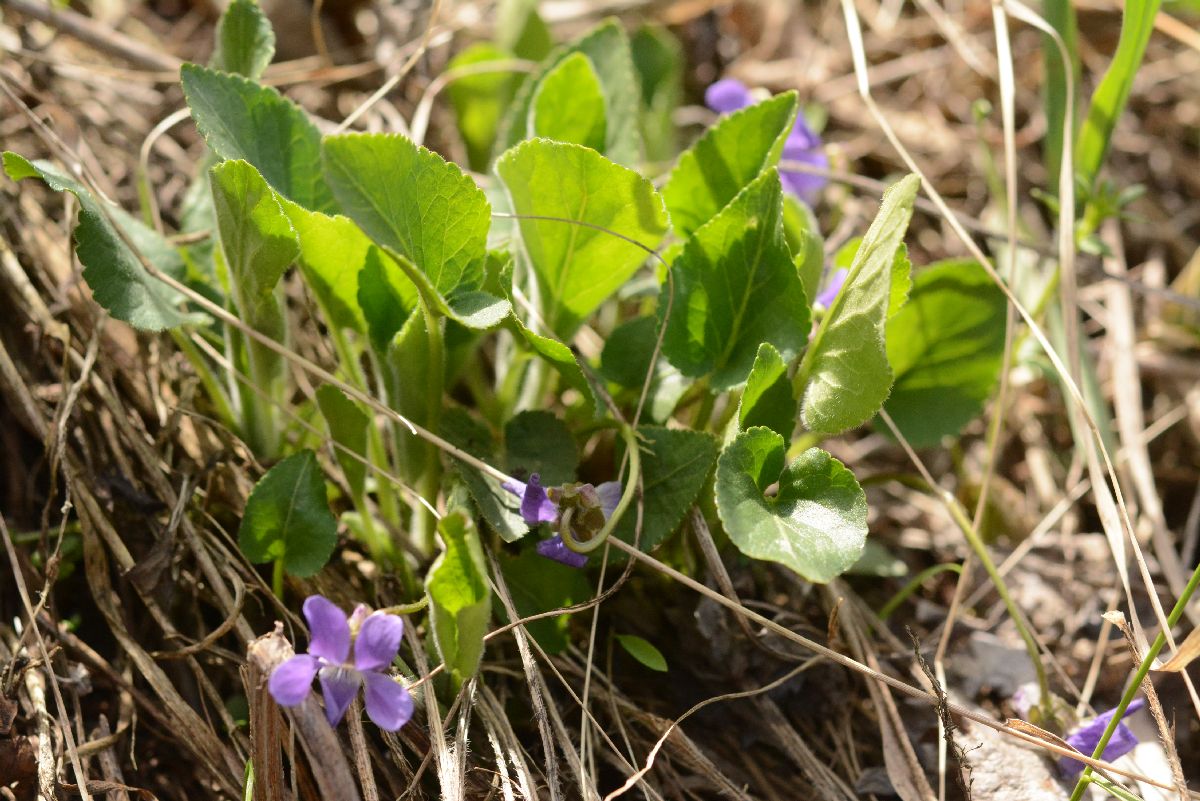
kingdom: Plantae
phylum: Tracheophyta
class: Magnoliopsida
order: Malpighiales
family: Violaceae
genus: Viola
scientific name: Viola hirta
